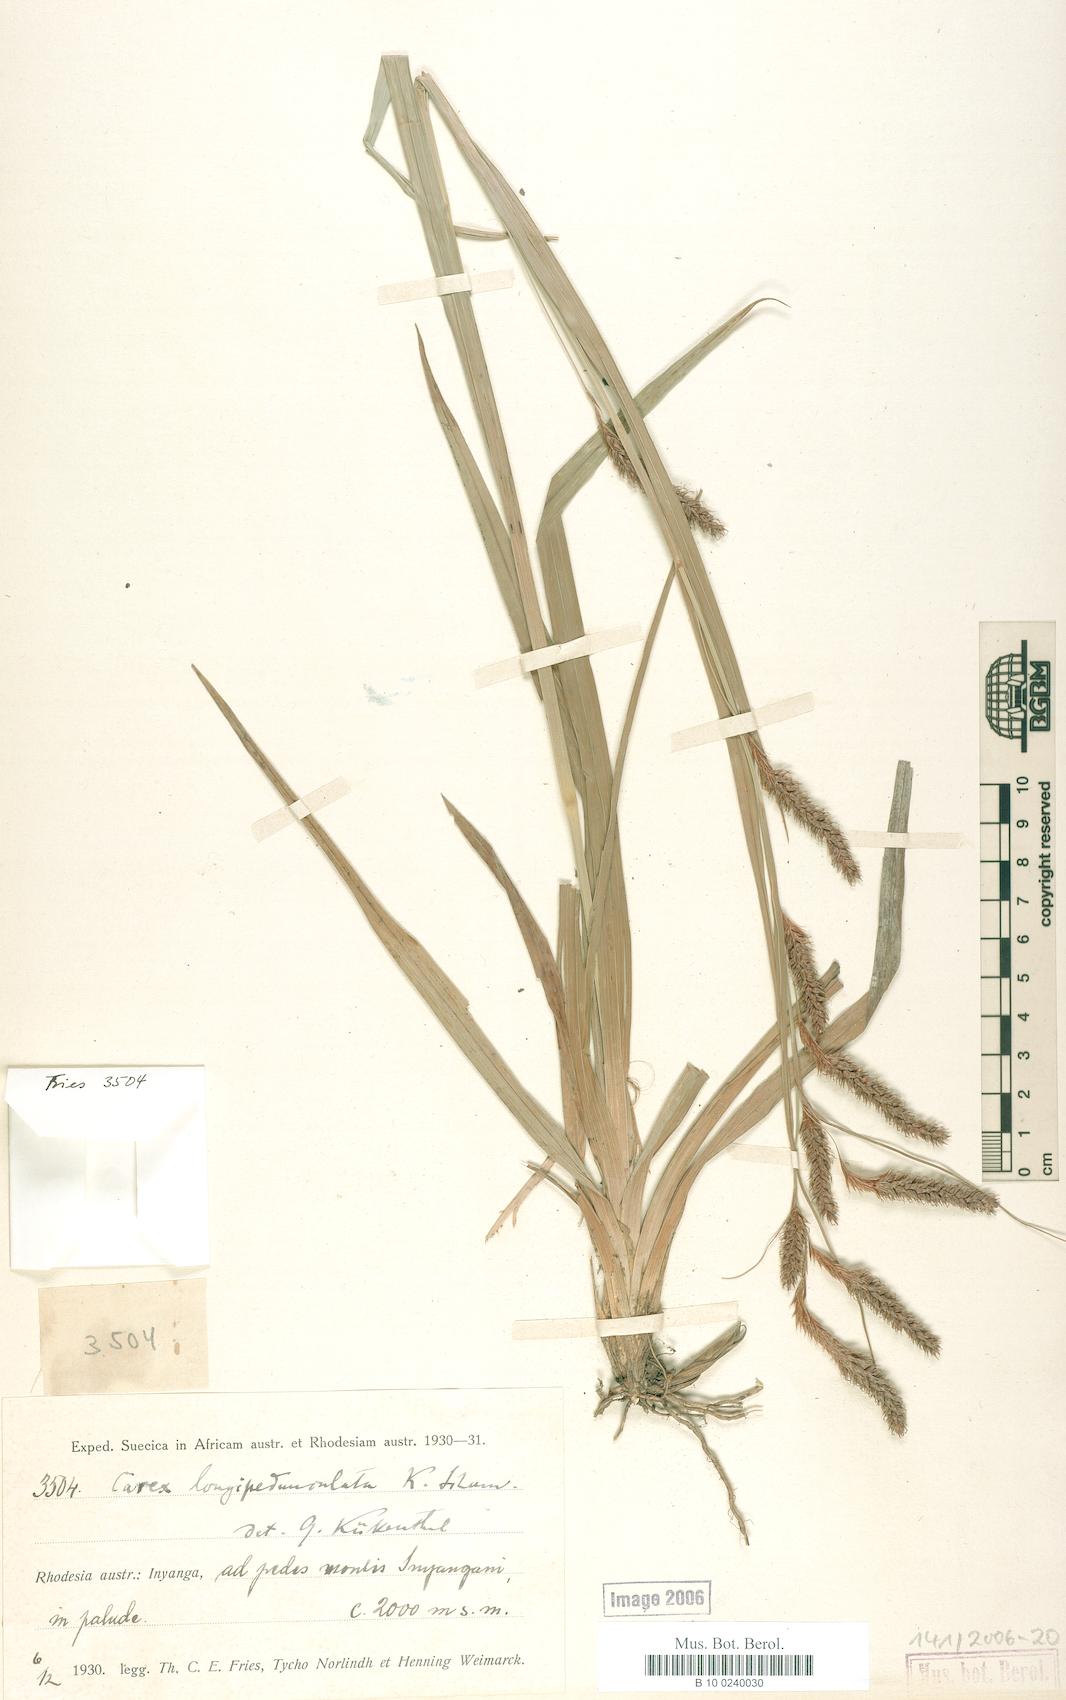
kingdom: Plantae
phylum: Tracheophyta
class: Liliopsida
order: Poales
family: Cyperaceae
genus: Carex
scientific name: Carex petitiana
